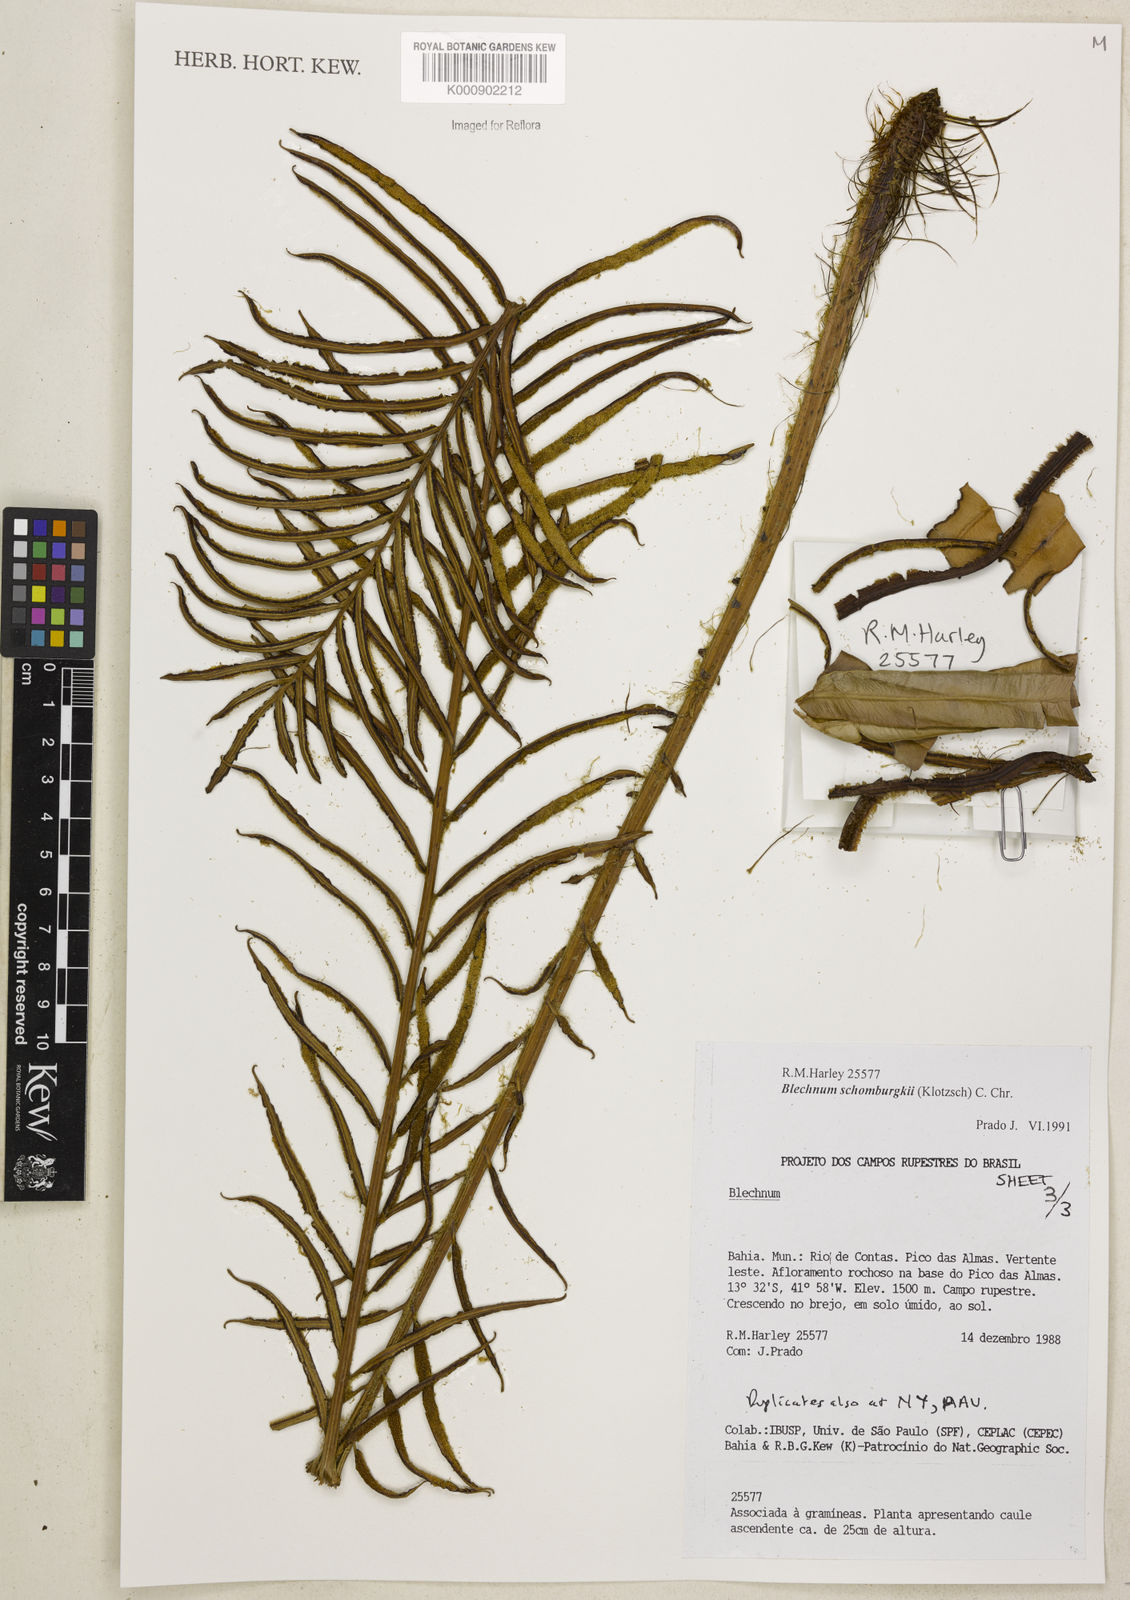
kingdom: Plantae
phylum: Tracheophyta
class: Polypodiopsida
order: Polypodiales
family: Blechnaceae
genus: Lomariocycas
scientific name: Lomariocycas schomburgkii
